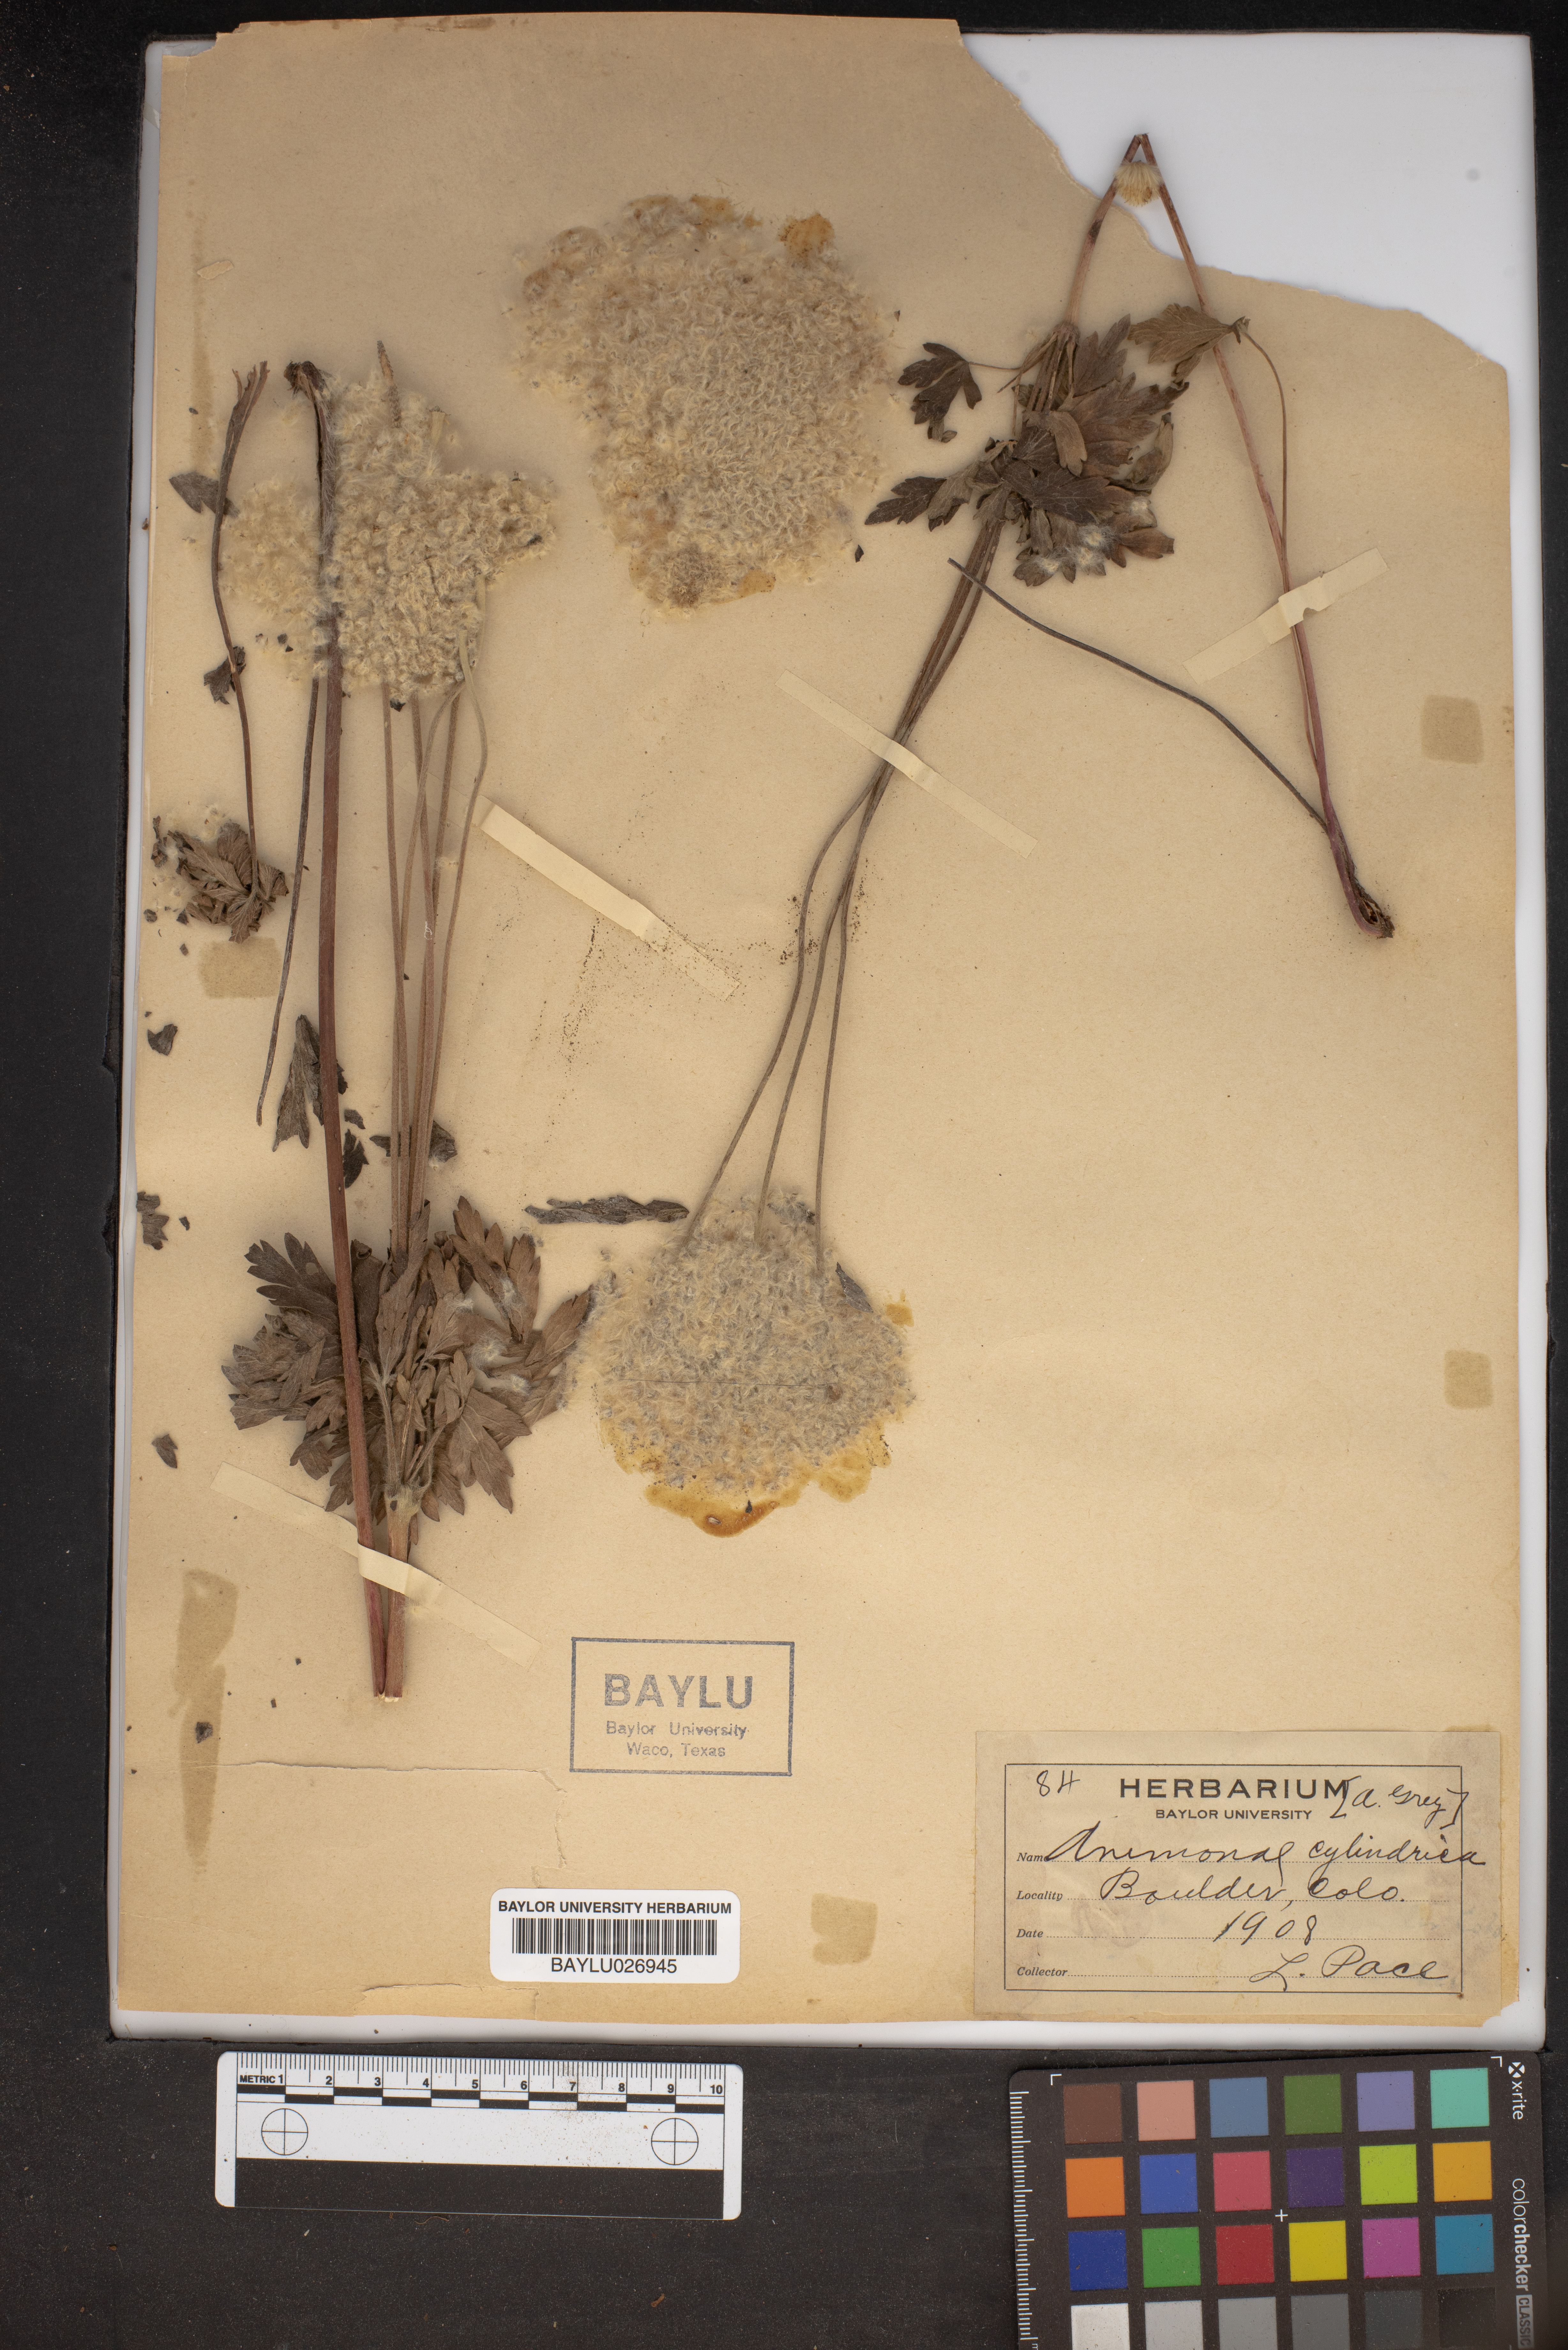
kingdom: Plantae
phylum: Tracheophyta
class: Magnoliopsida
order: Ranunculales
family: Ranunculaceae
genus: Anemone
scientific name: Anemone cylindrica
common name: Candle anemone
